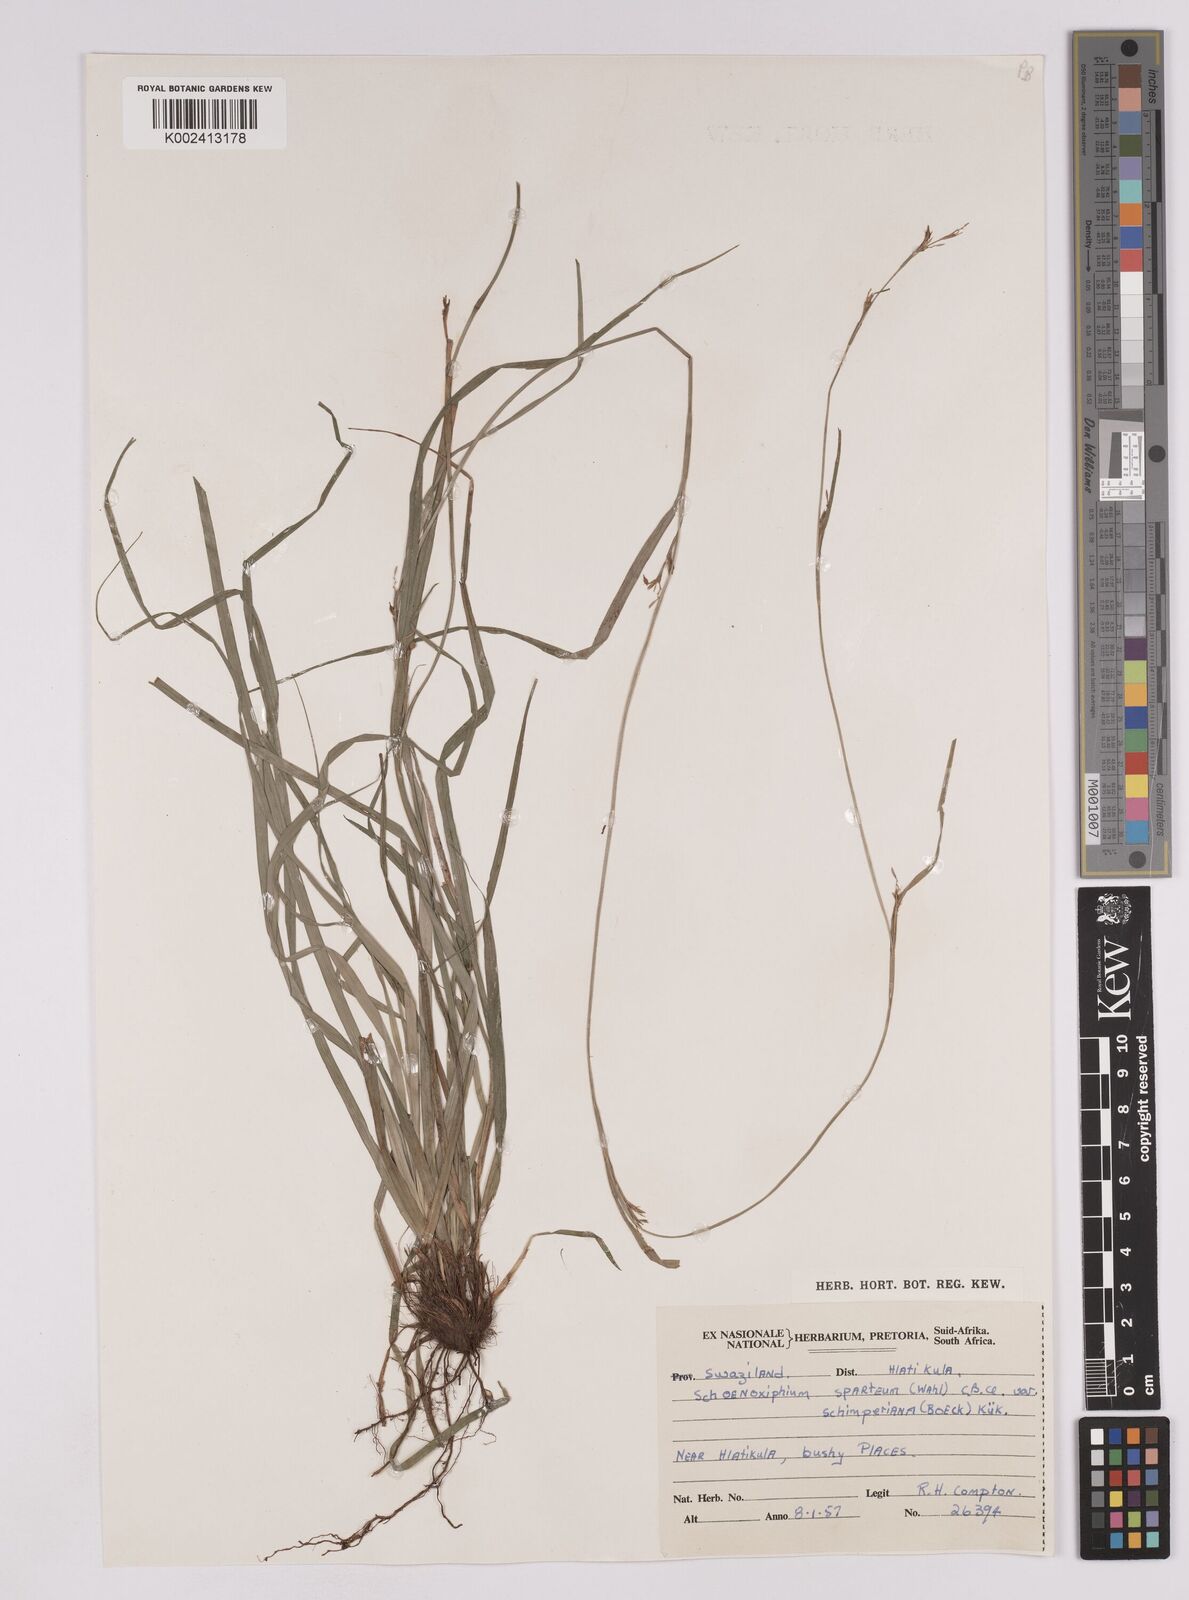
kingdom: Plantae
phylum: Tracheophyta
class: Liliopsida
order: Poales
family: Cyperaceae
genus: Carex
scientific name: Carex spartea
